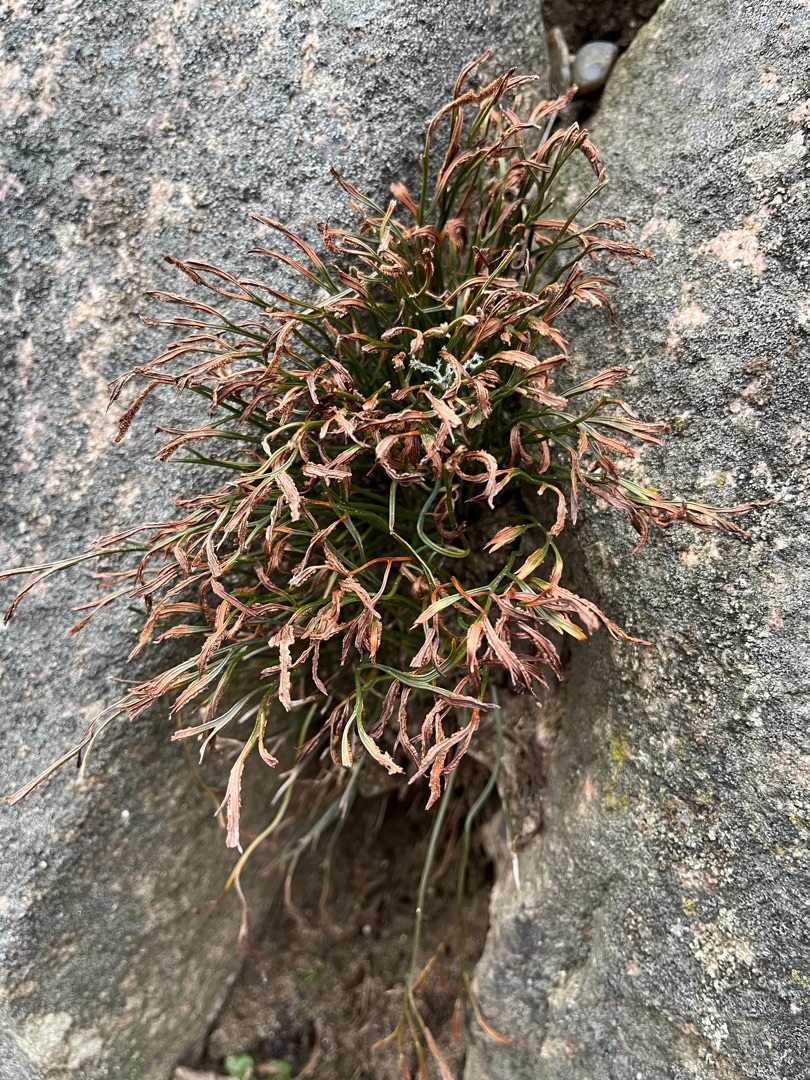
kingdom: Plantae
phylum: Tracheophyta
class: Polypodiopsida
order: Polypodiales
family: Aspleniaceae
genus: Asplenium
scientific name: Asplenium septentrionale
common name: Nordisk radeløv
